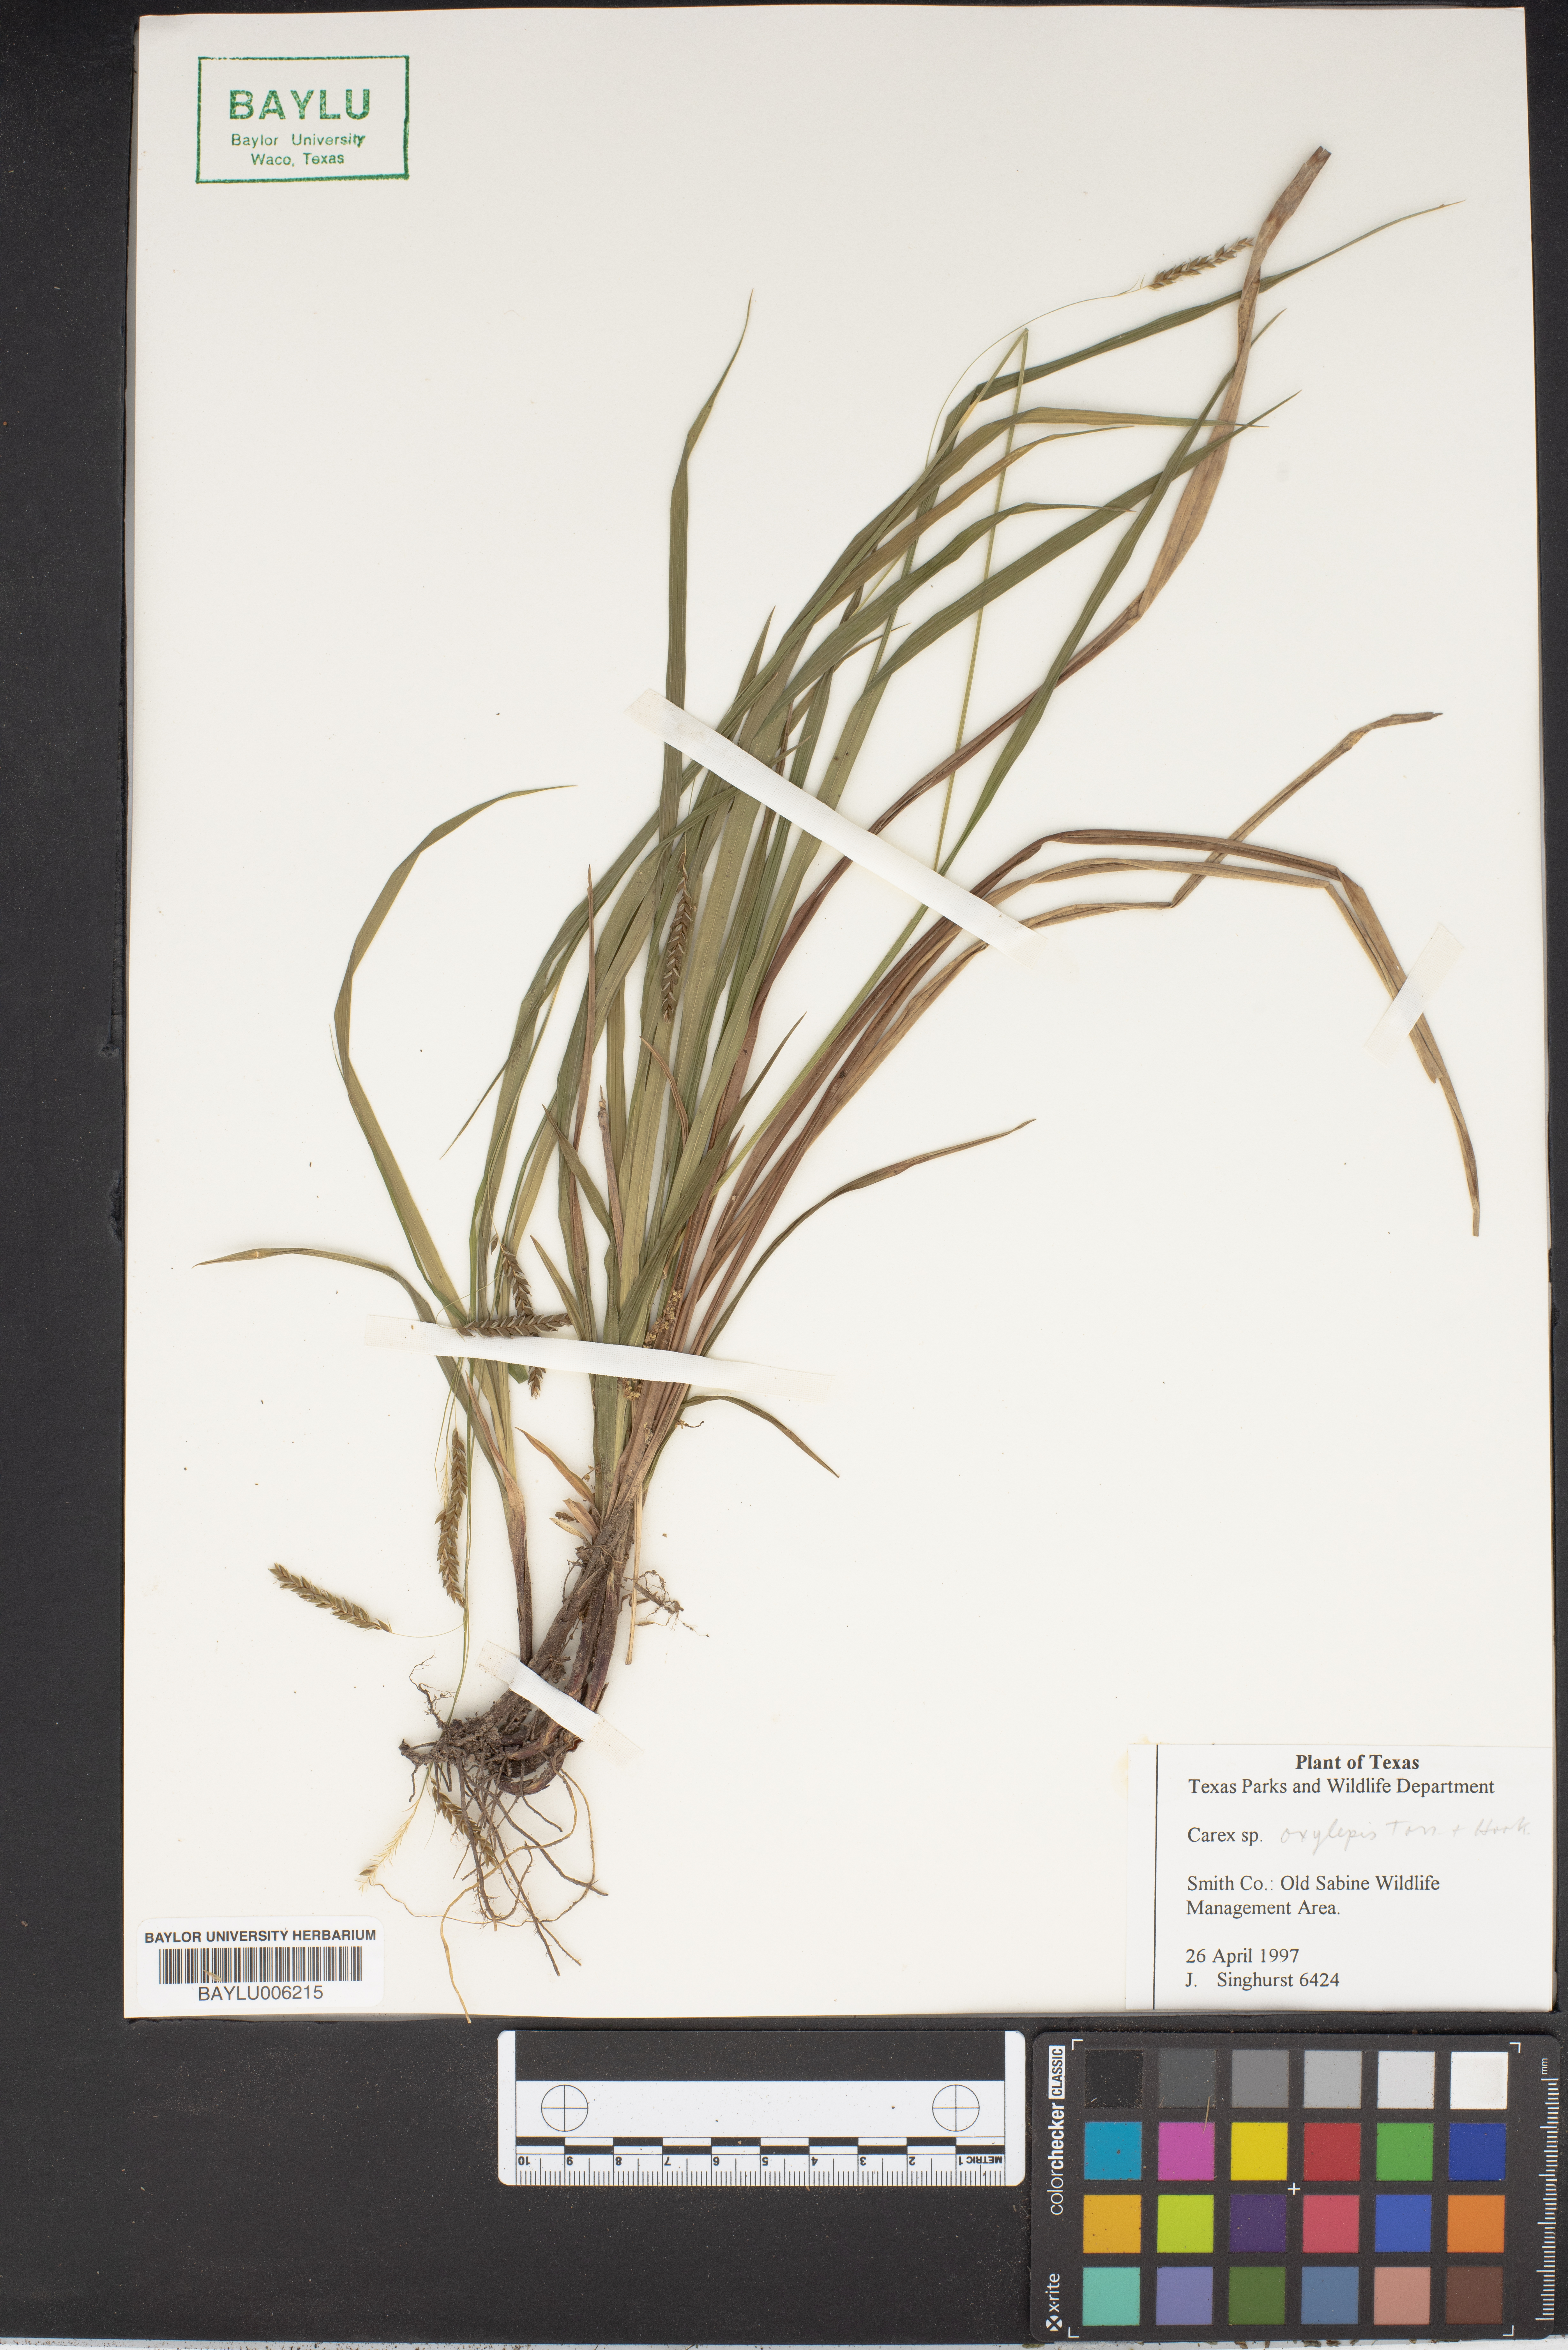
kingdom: Plantae
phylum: Tracheophyta
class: Liliopsida
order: Poales
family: Cyperaceae
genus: Carex
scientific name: Carex oxylepis
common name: Sharpscale sedge
